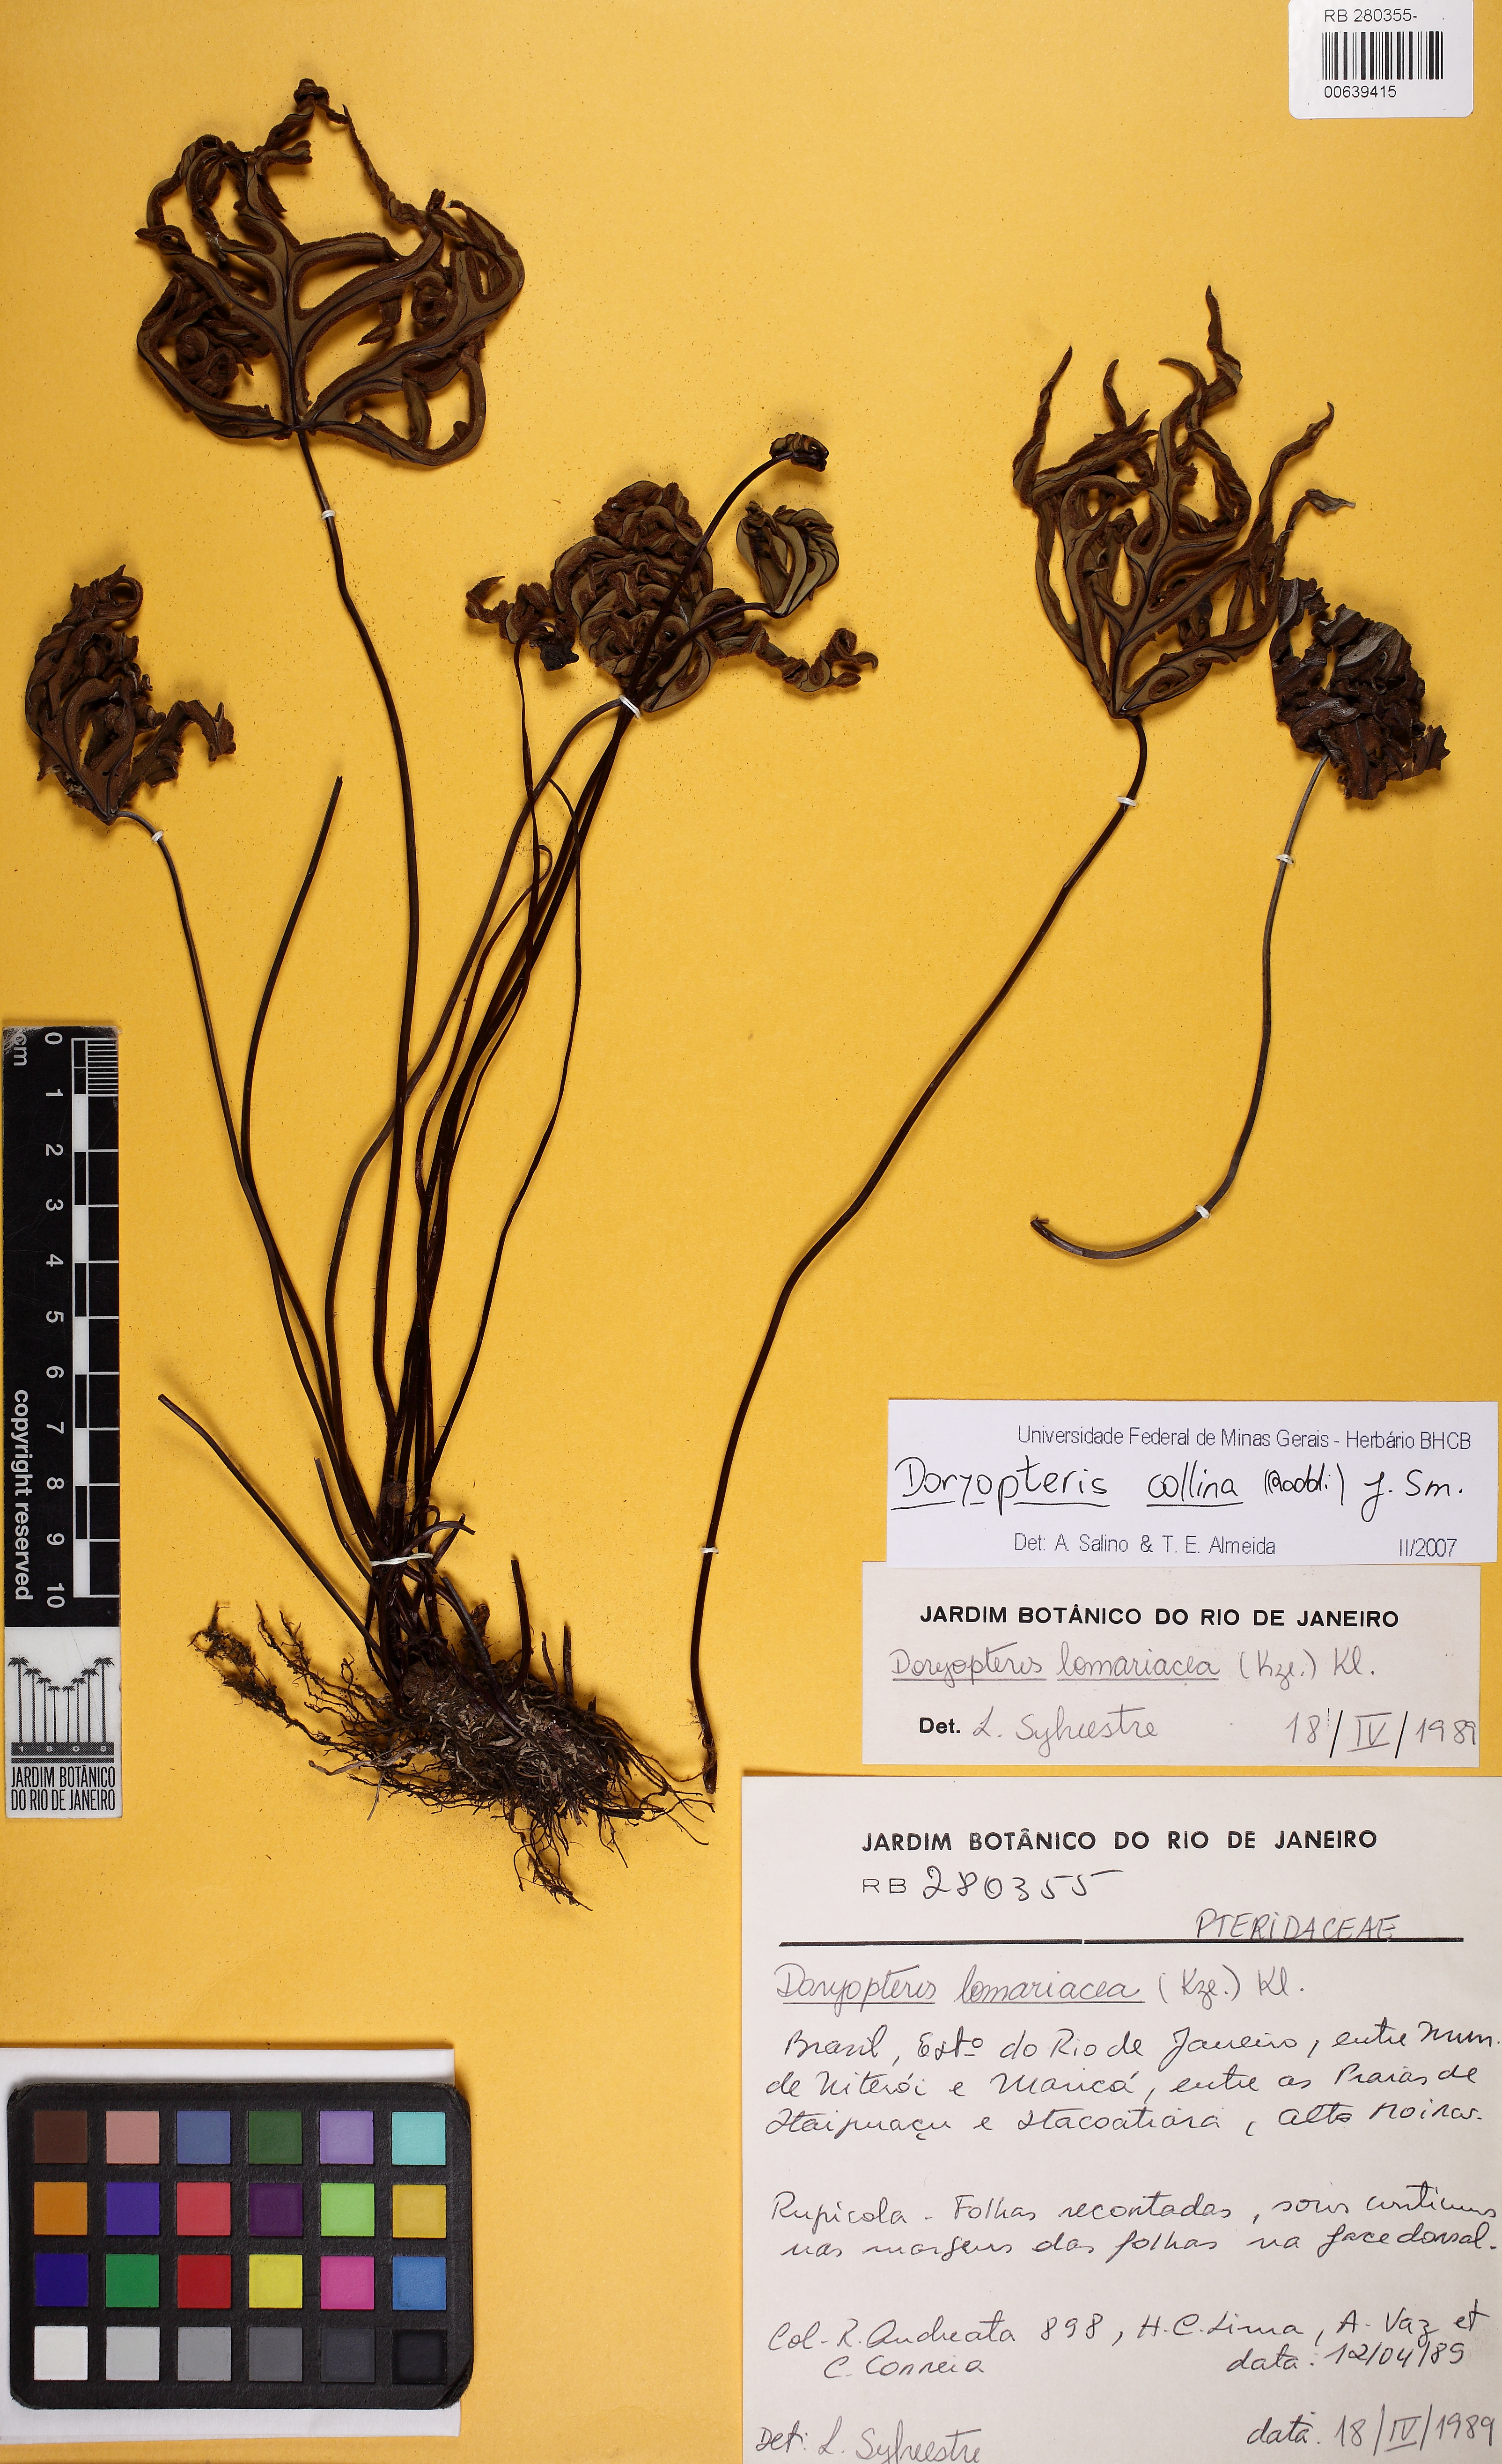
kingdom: Plantae
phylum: Tracheophyta
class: Polypodiopsida
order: Polypodiales
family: Pteridaceae
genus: Doryopteris
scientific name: Doryopteris collina
